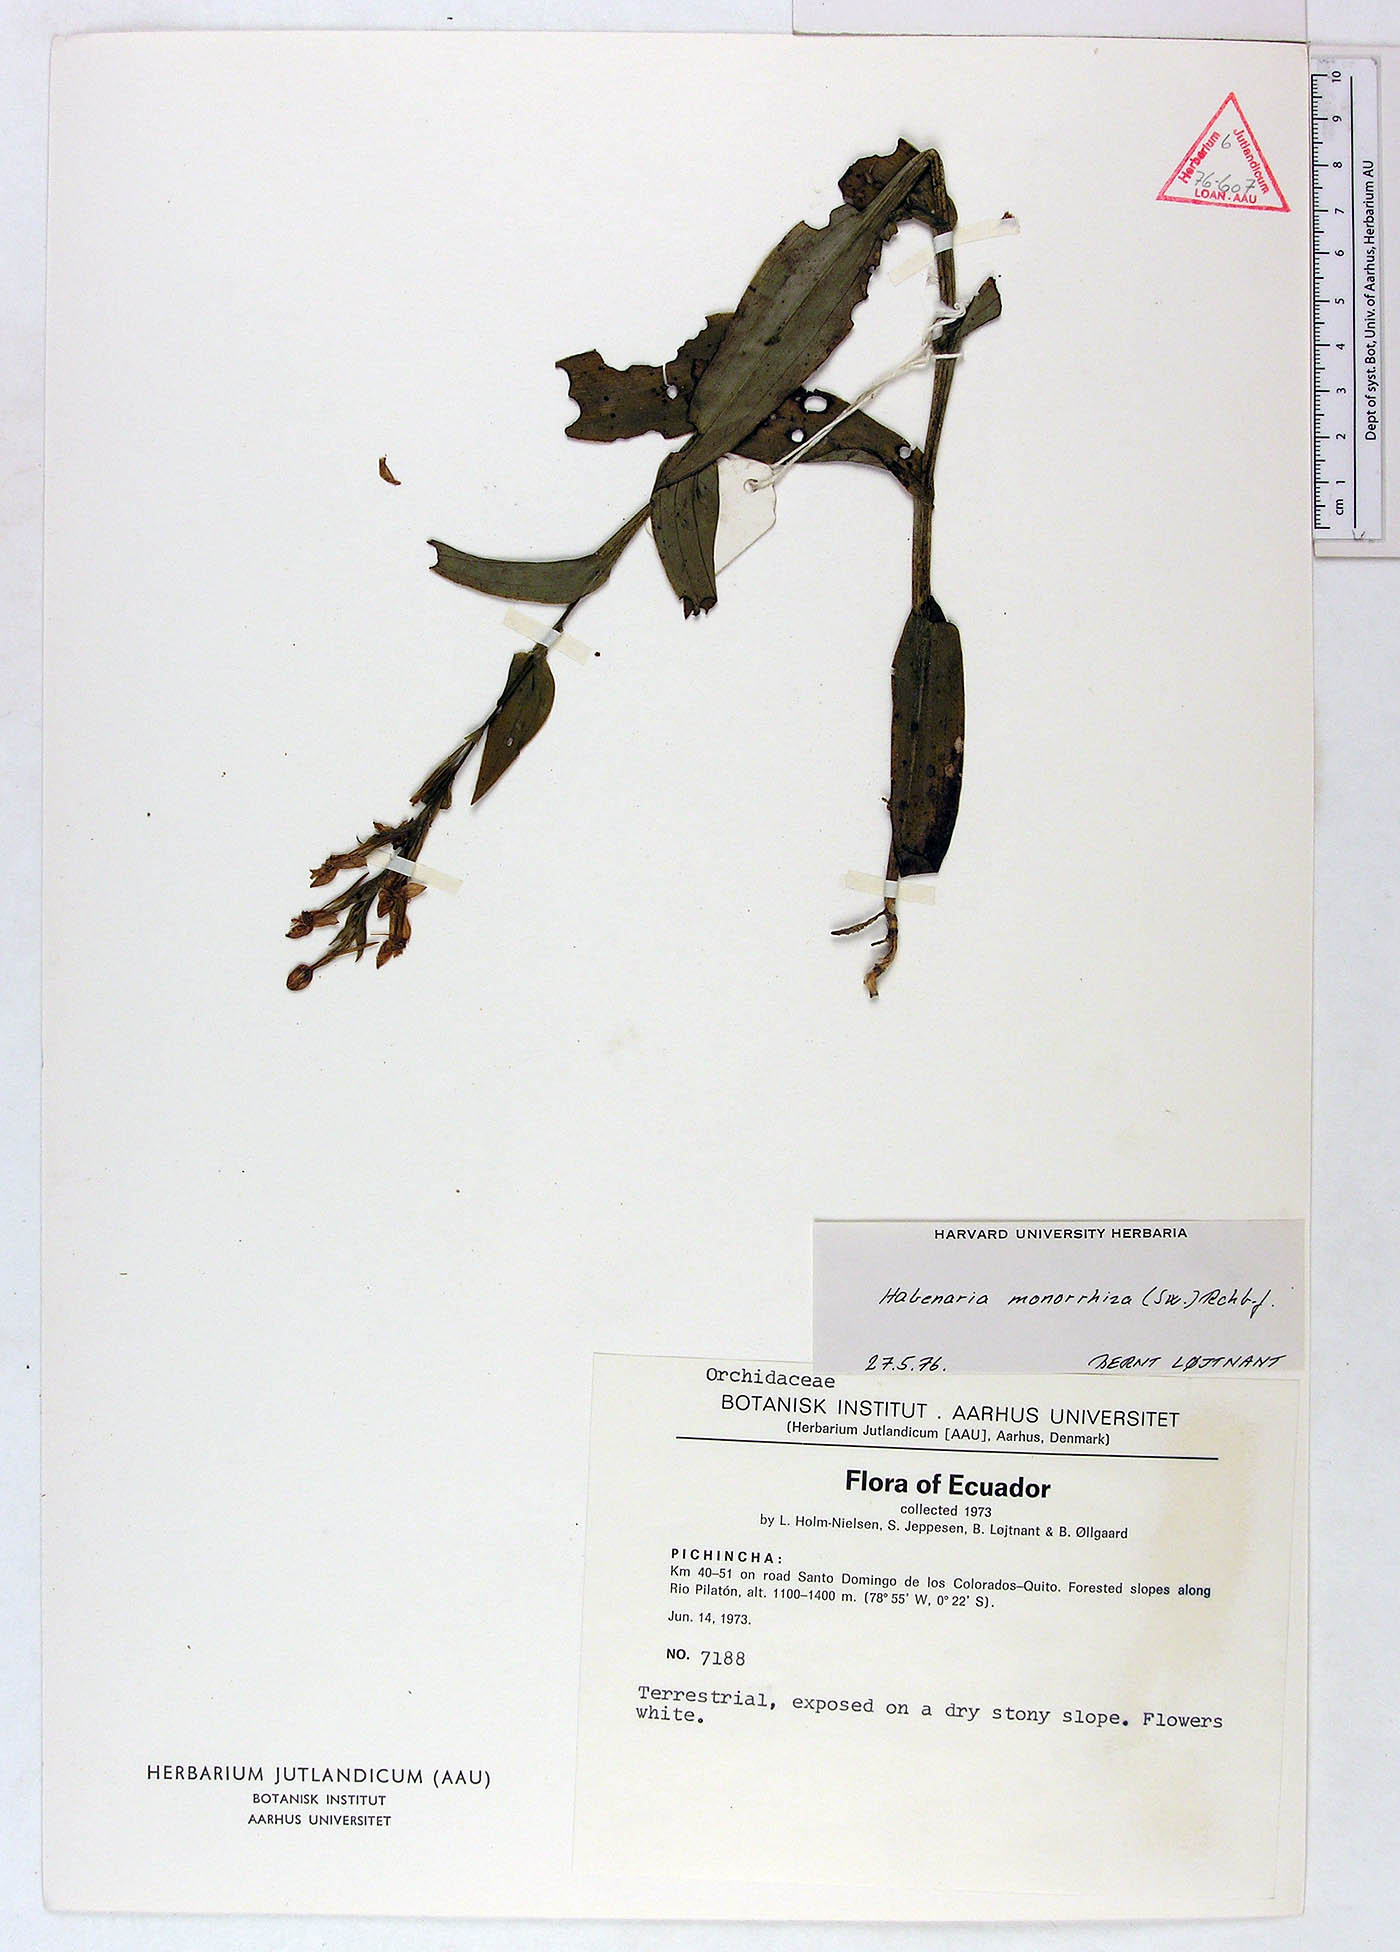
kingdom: Plantae
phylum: Tracheophyta
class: Liliopsida
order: Asparagales
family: Orchidaceae
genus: Habenaria
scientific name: Habenaria monorrhiza
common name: Tropical bog orchid
